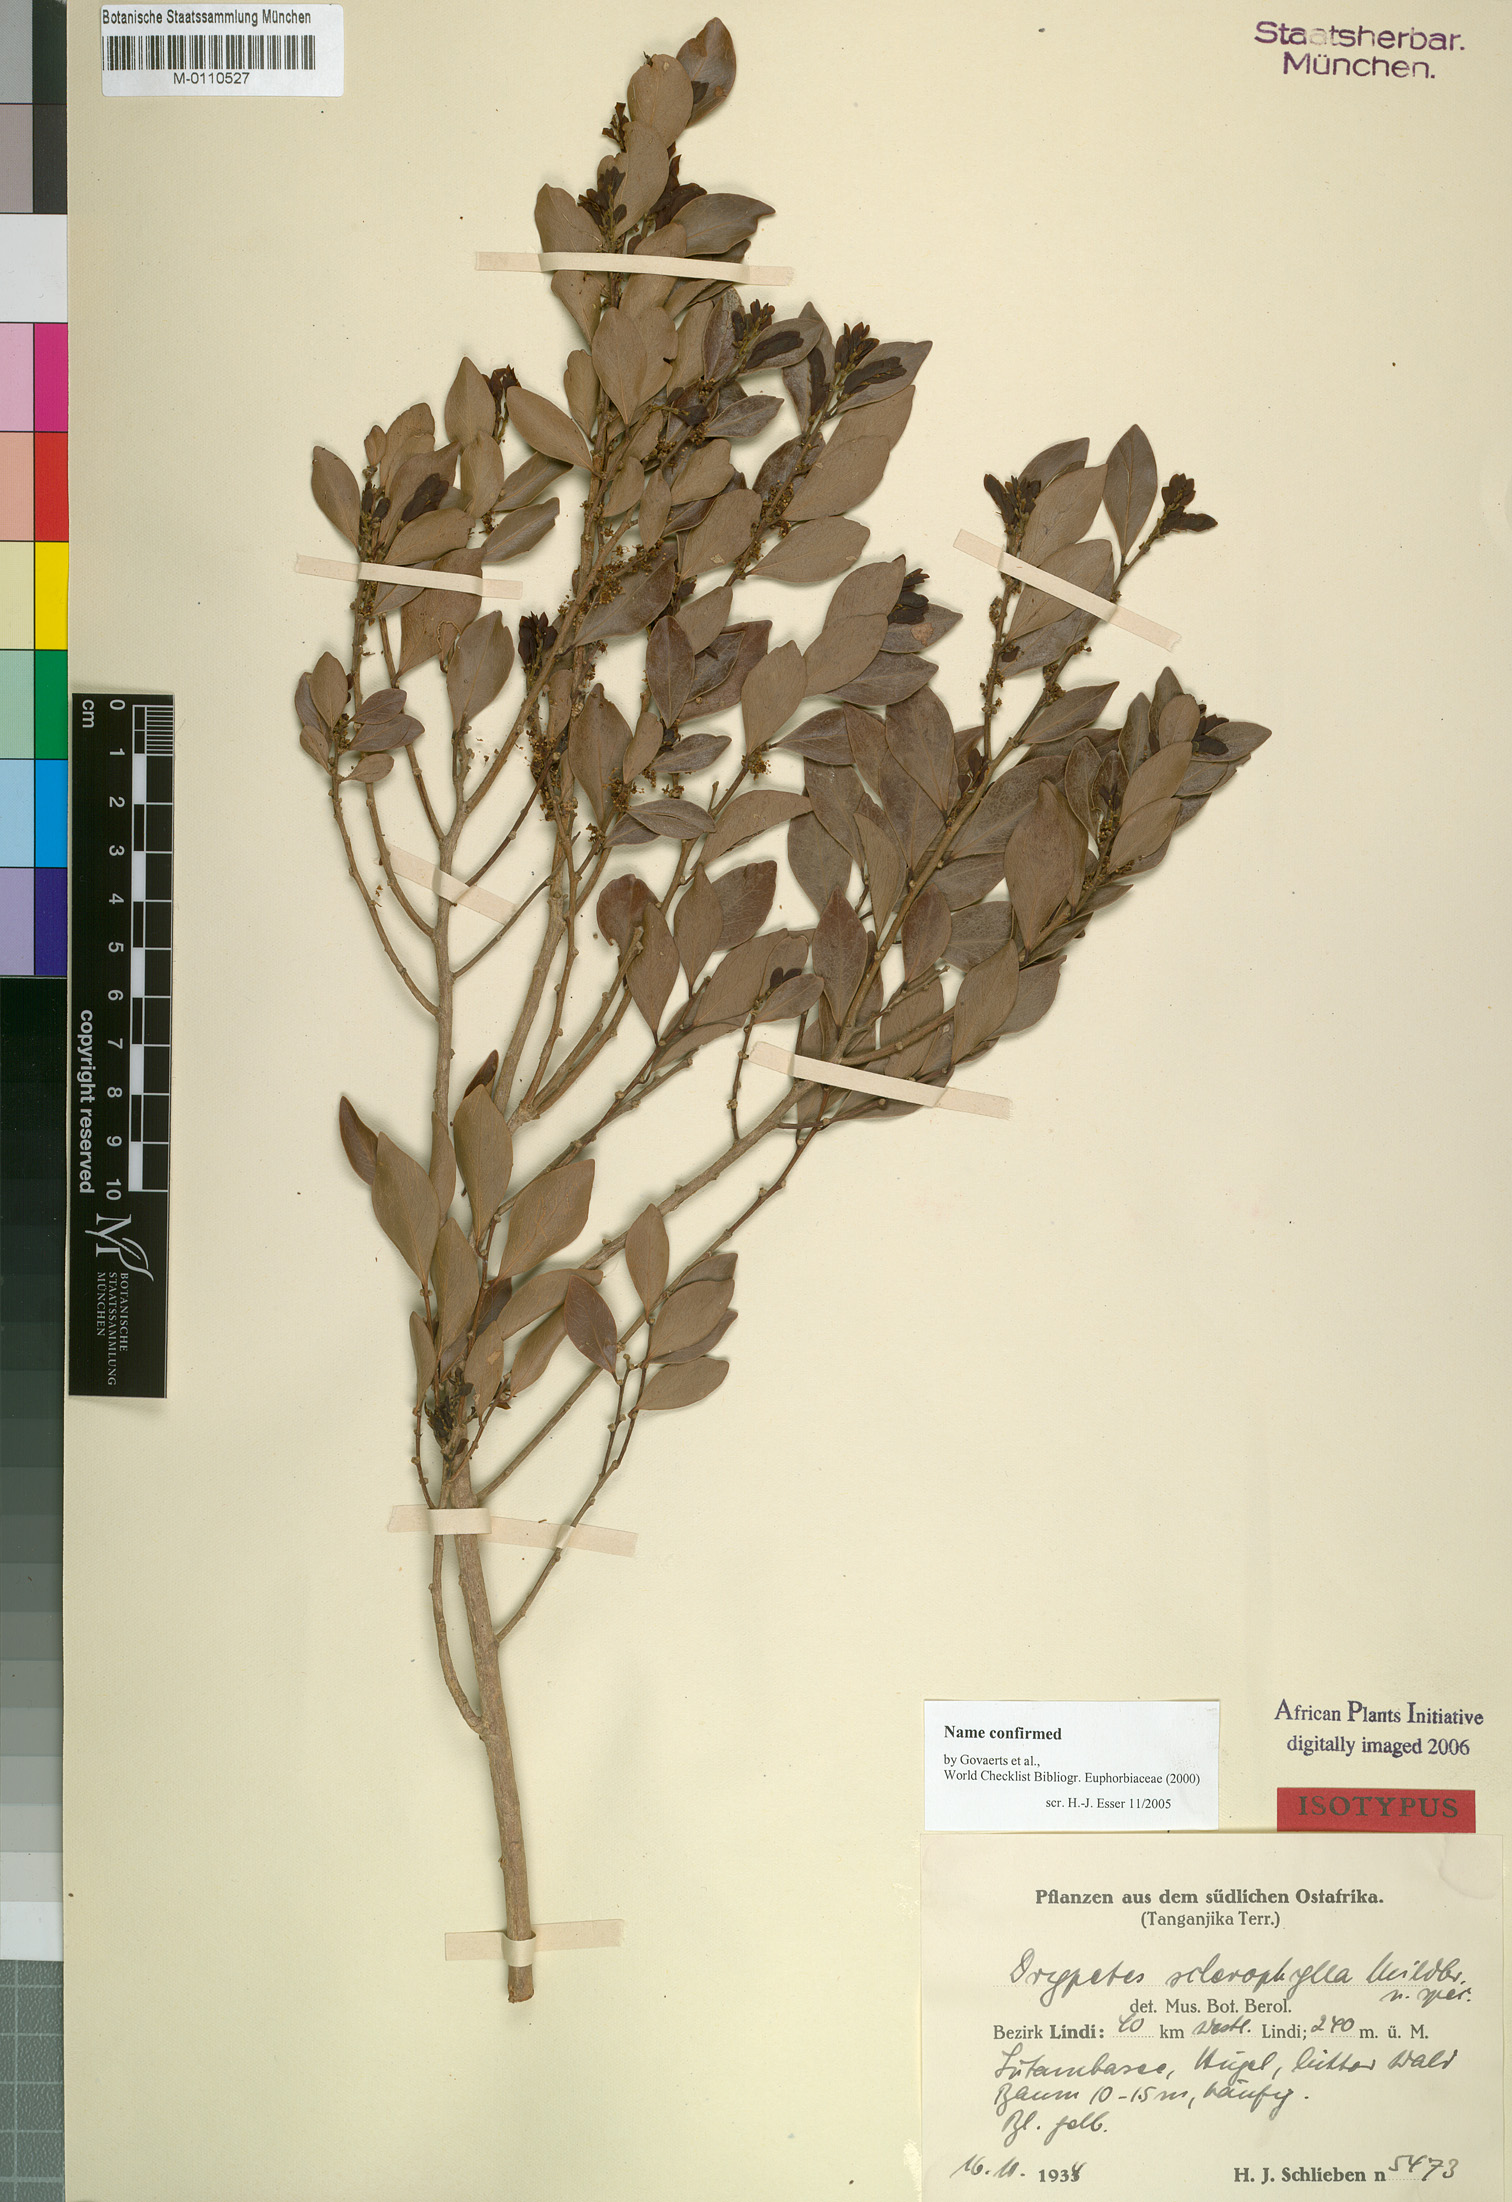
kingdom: Plantae
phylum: Tracheophyta
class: Magnoliopsida
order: Malpighiales
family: Putranjivaceae
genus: Drypetes
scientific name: Drypetes sclerophylla
